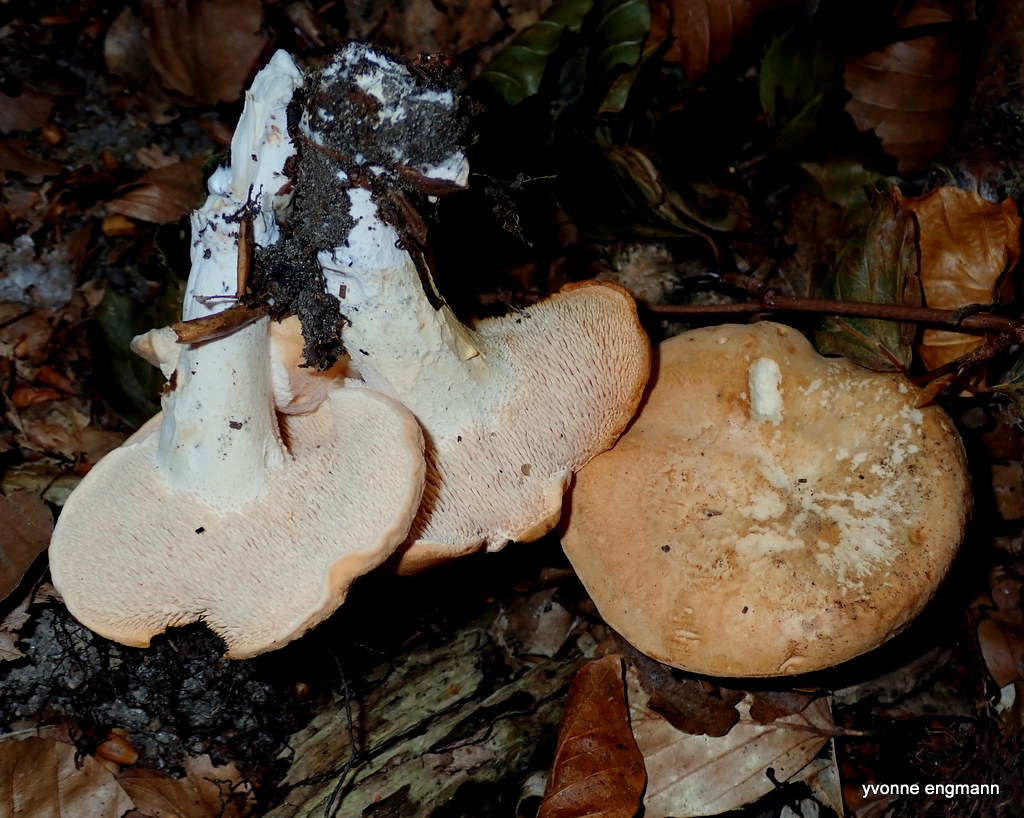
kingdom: Fungi
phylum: Basidiomycota
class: Agaricomycetes
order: Cantharellales
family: Hydnaceae
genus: Hydnum
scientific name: Hydnum
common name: pigsvamp
